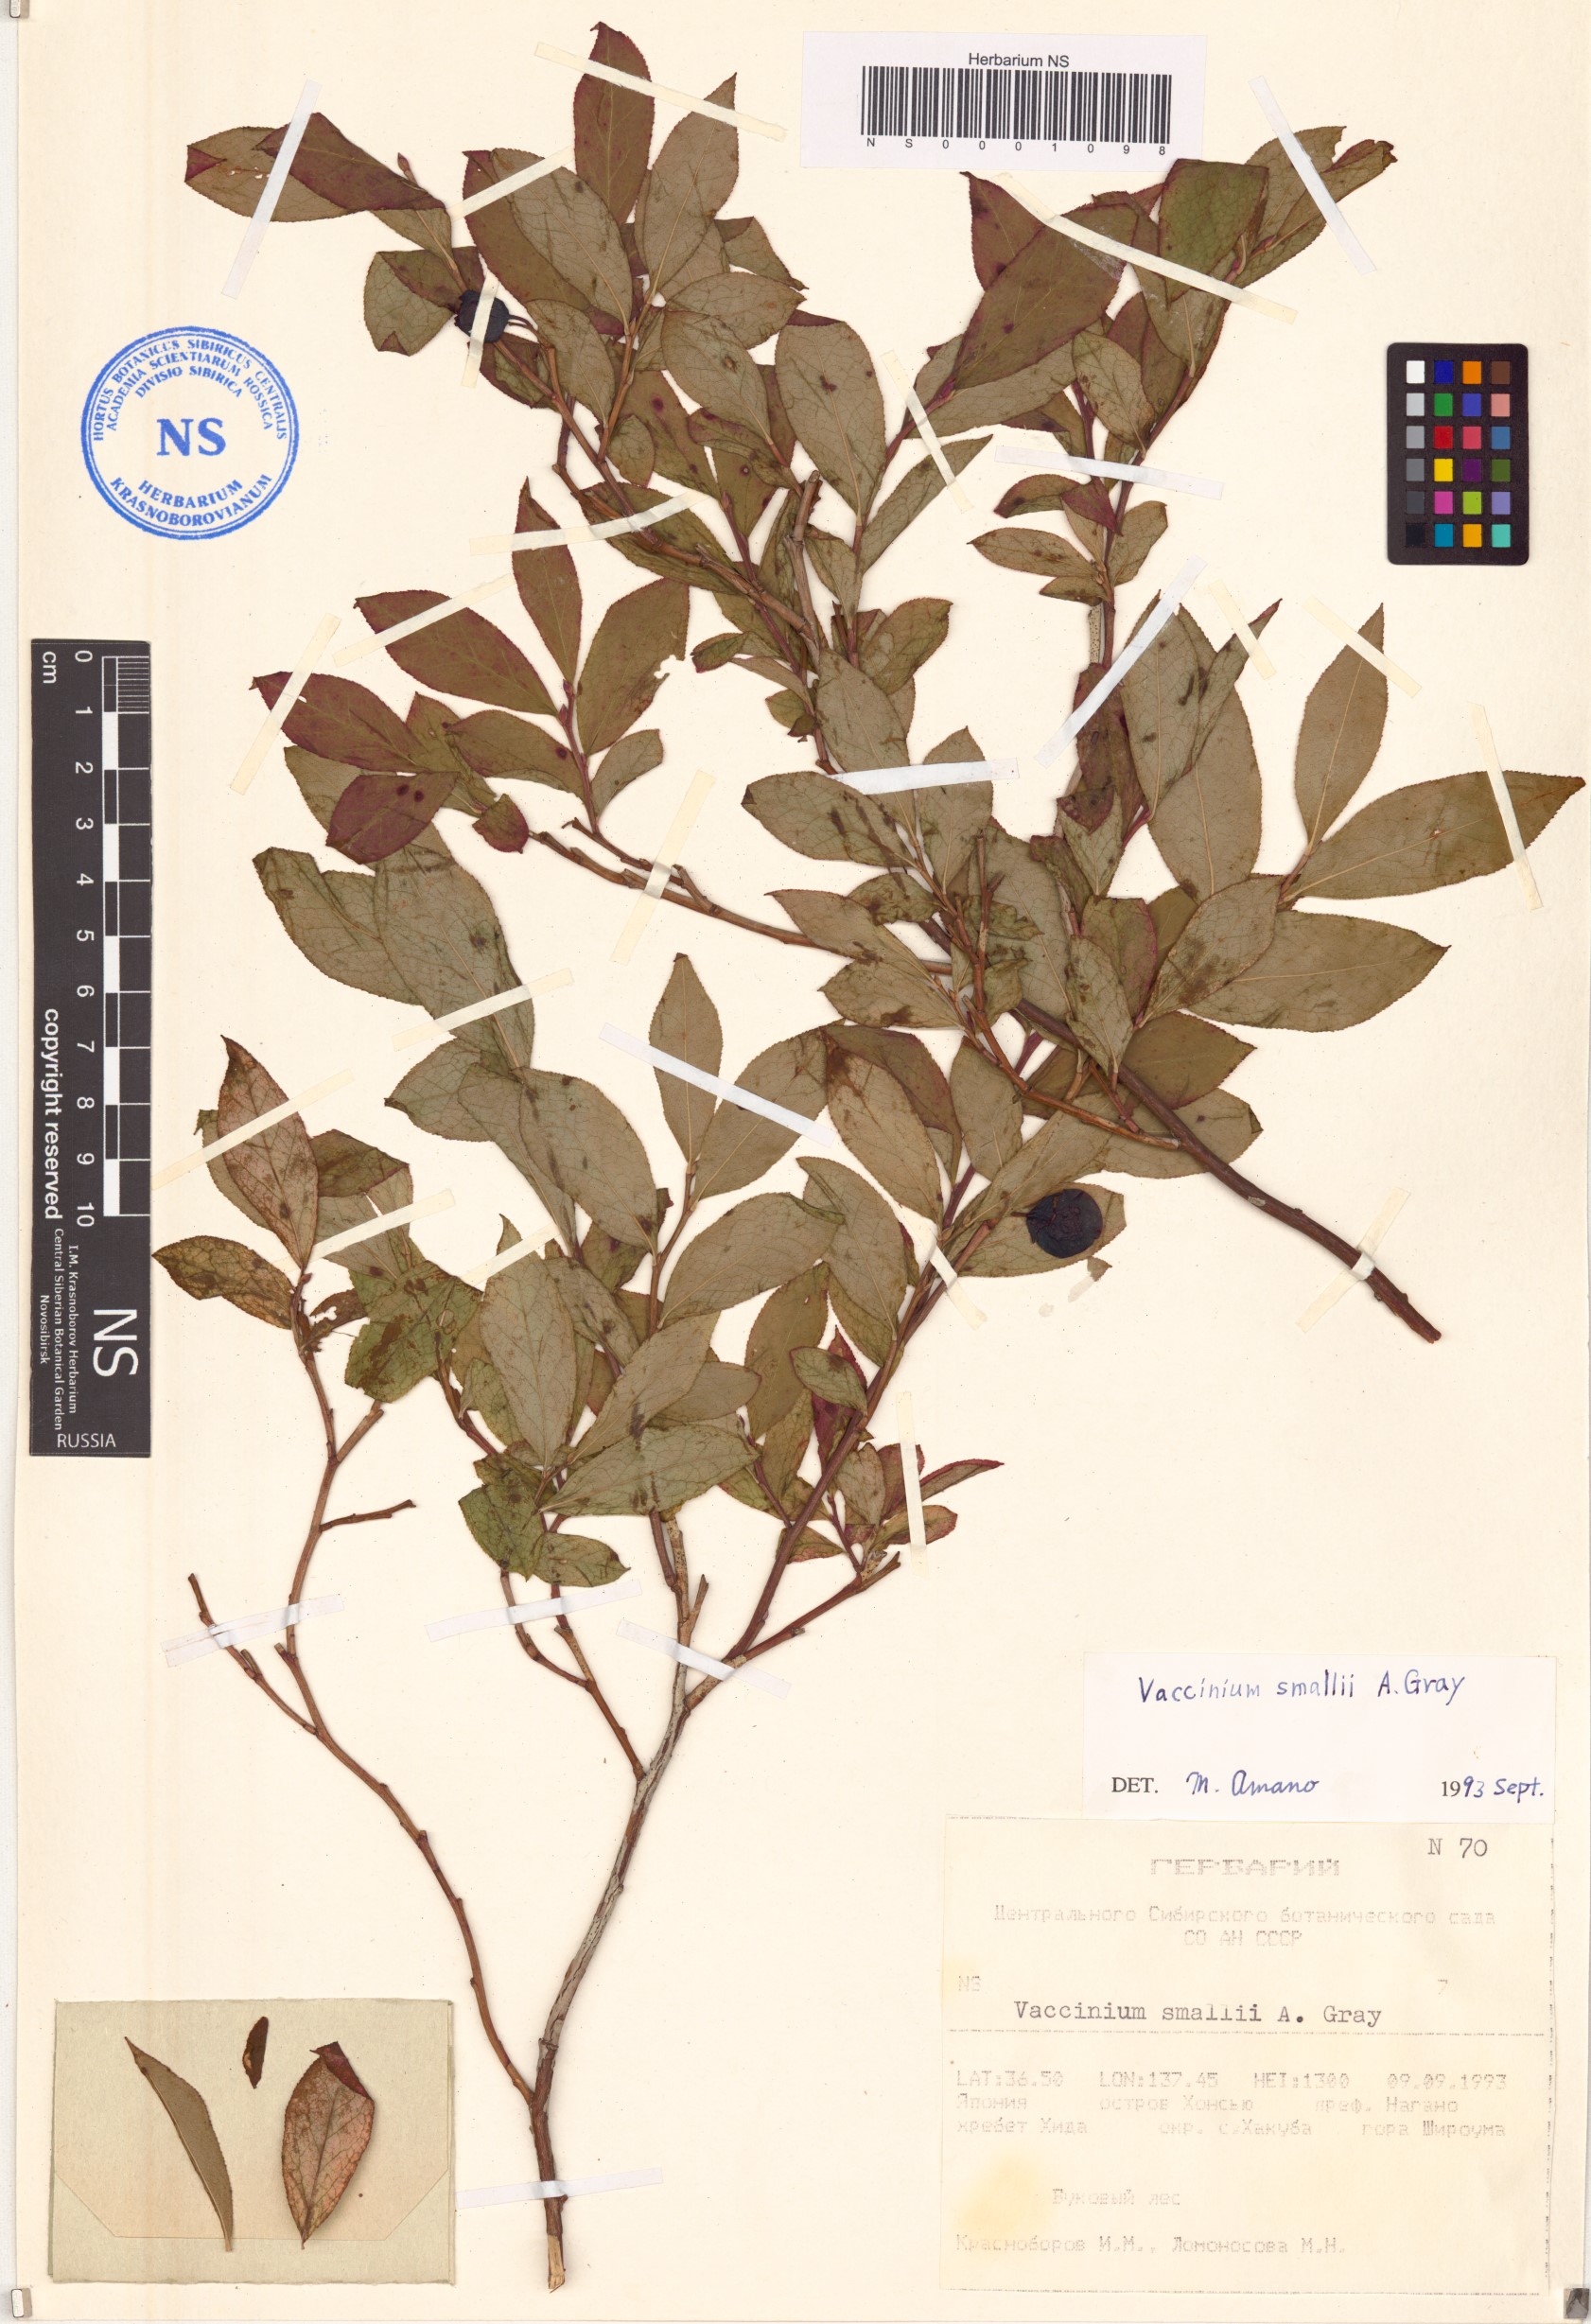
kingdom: Plantae
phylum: Tracheophyta
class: Magnoliopsida
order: Ericales
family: Ericaceae
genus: Vaccinium
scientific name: Vaccinium smallii
